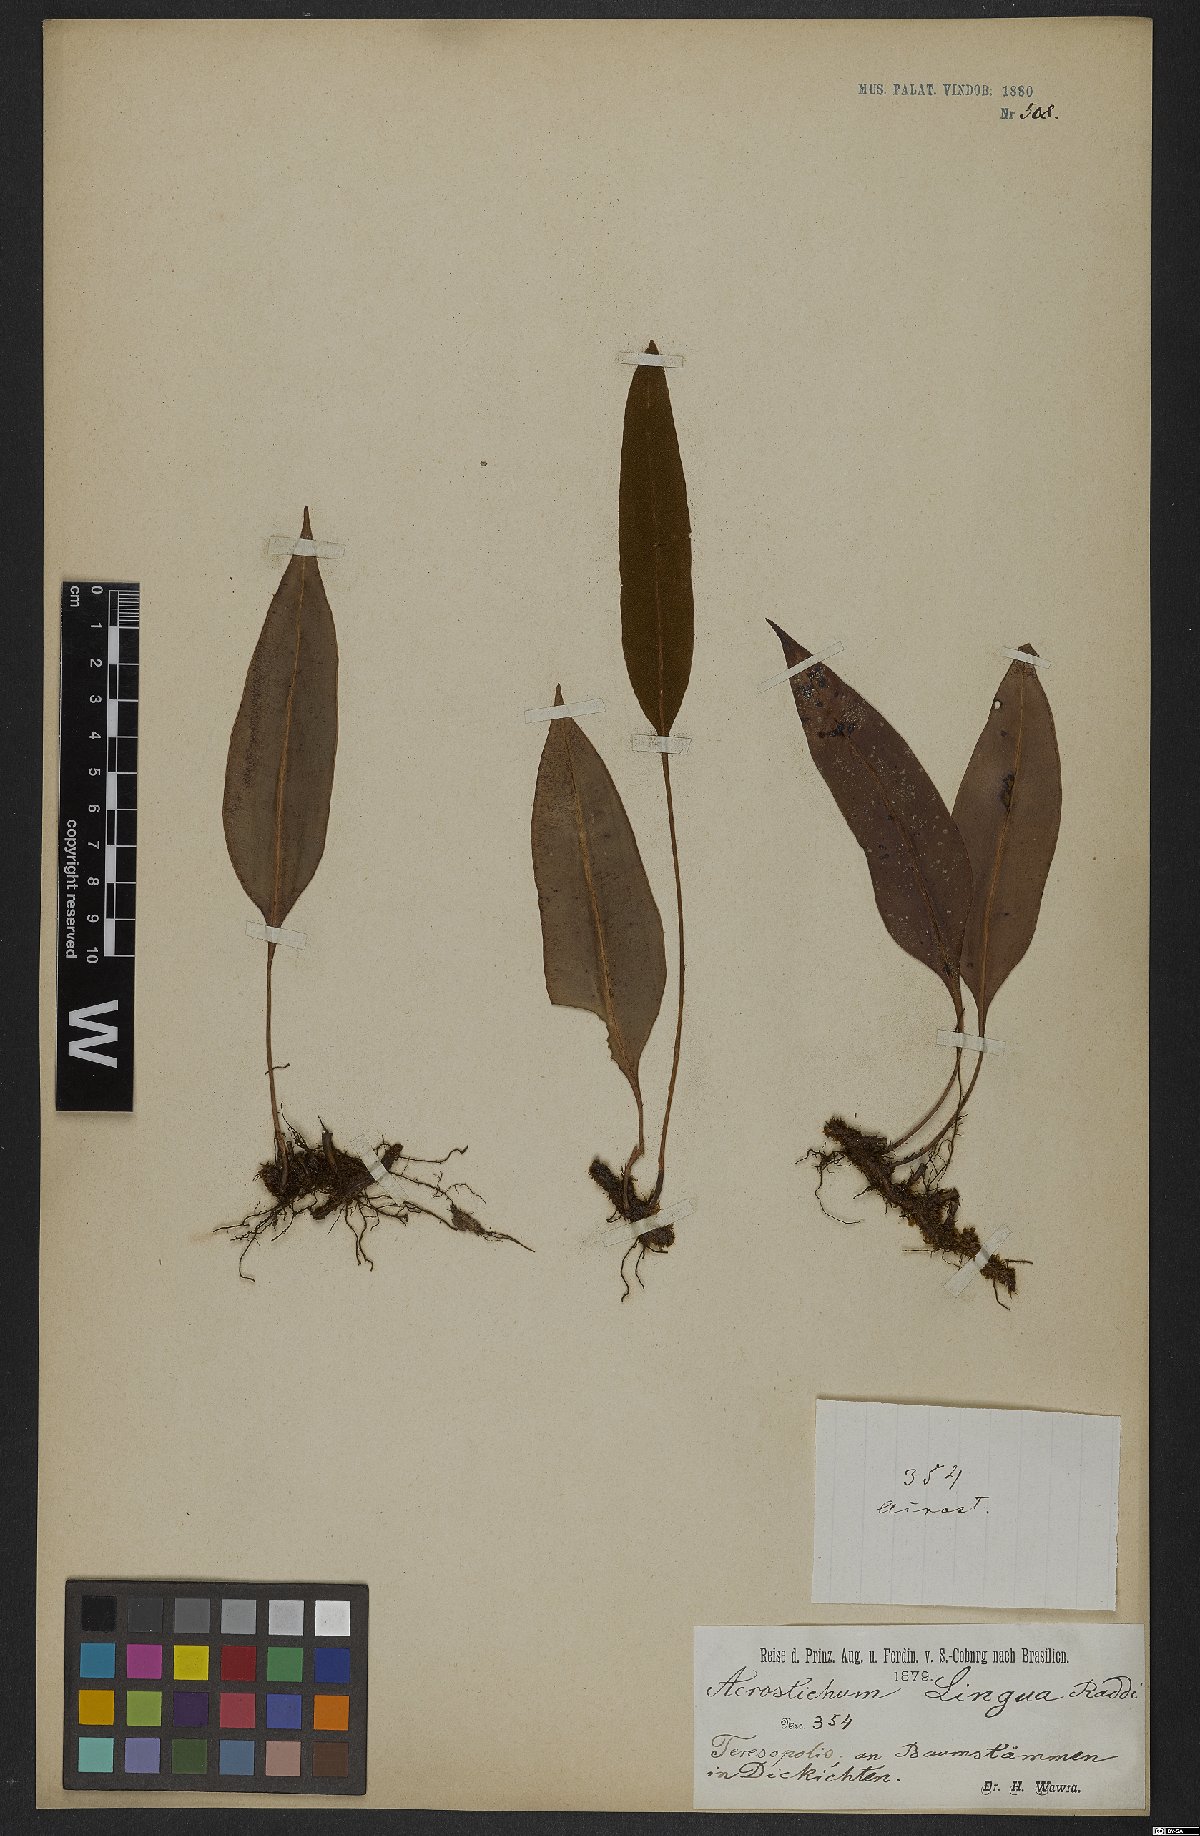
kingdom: Plantae
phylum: Tracheophyta
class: Polypodiopsida
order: Polypodiales
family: Dryopteridaceae
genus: Elaphoglossum
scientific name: Elaphoglossum brachyneuron
